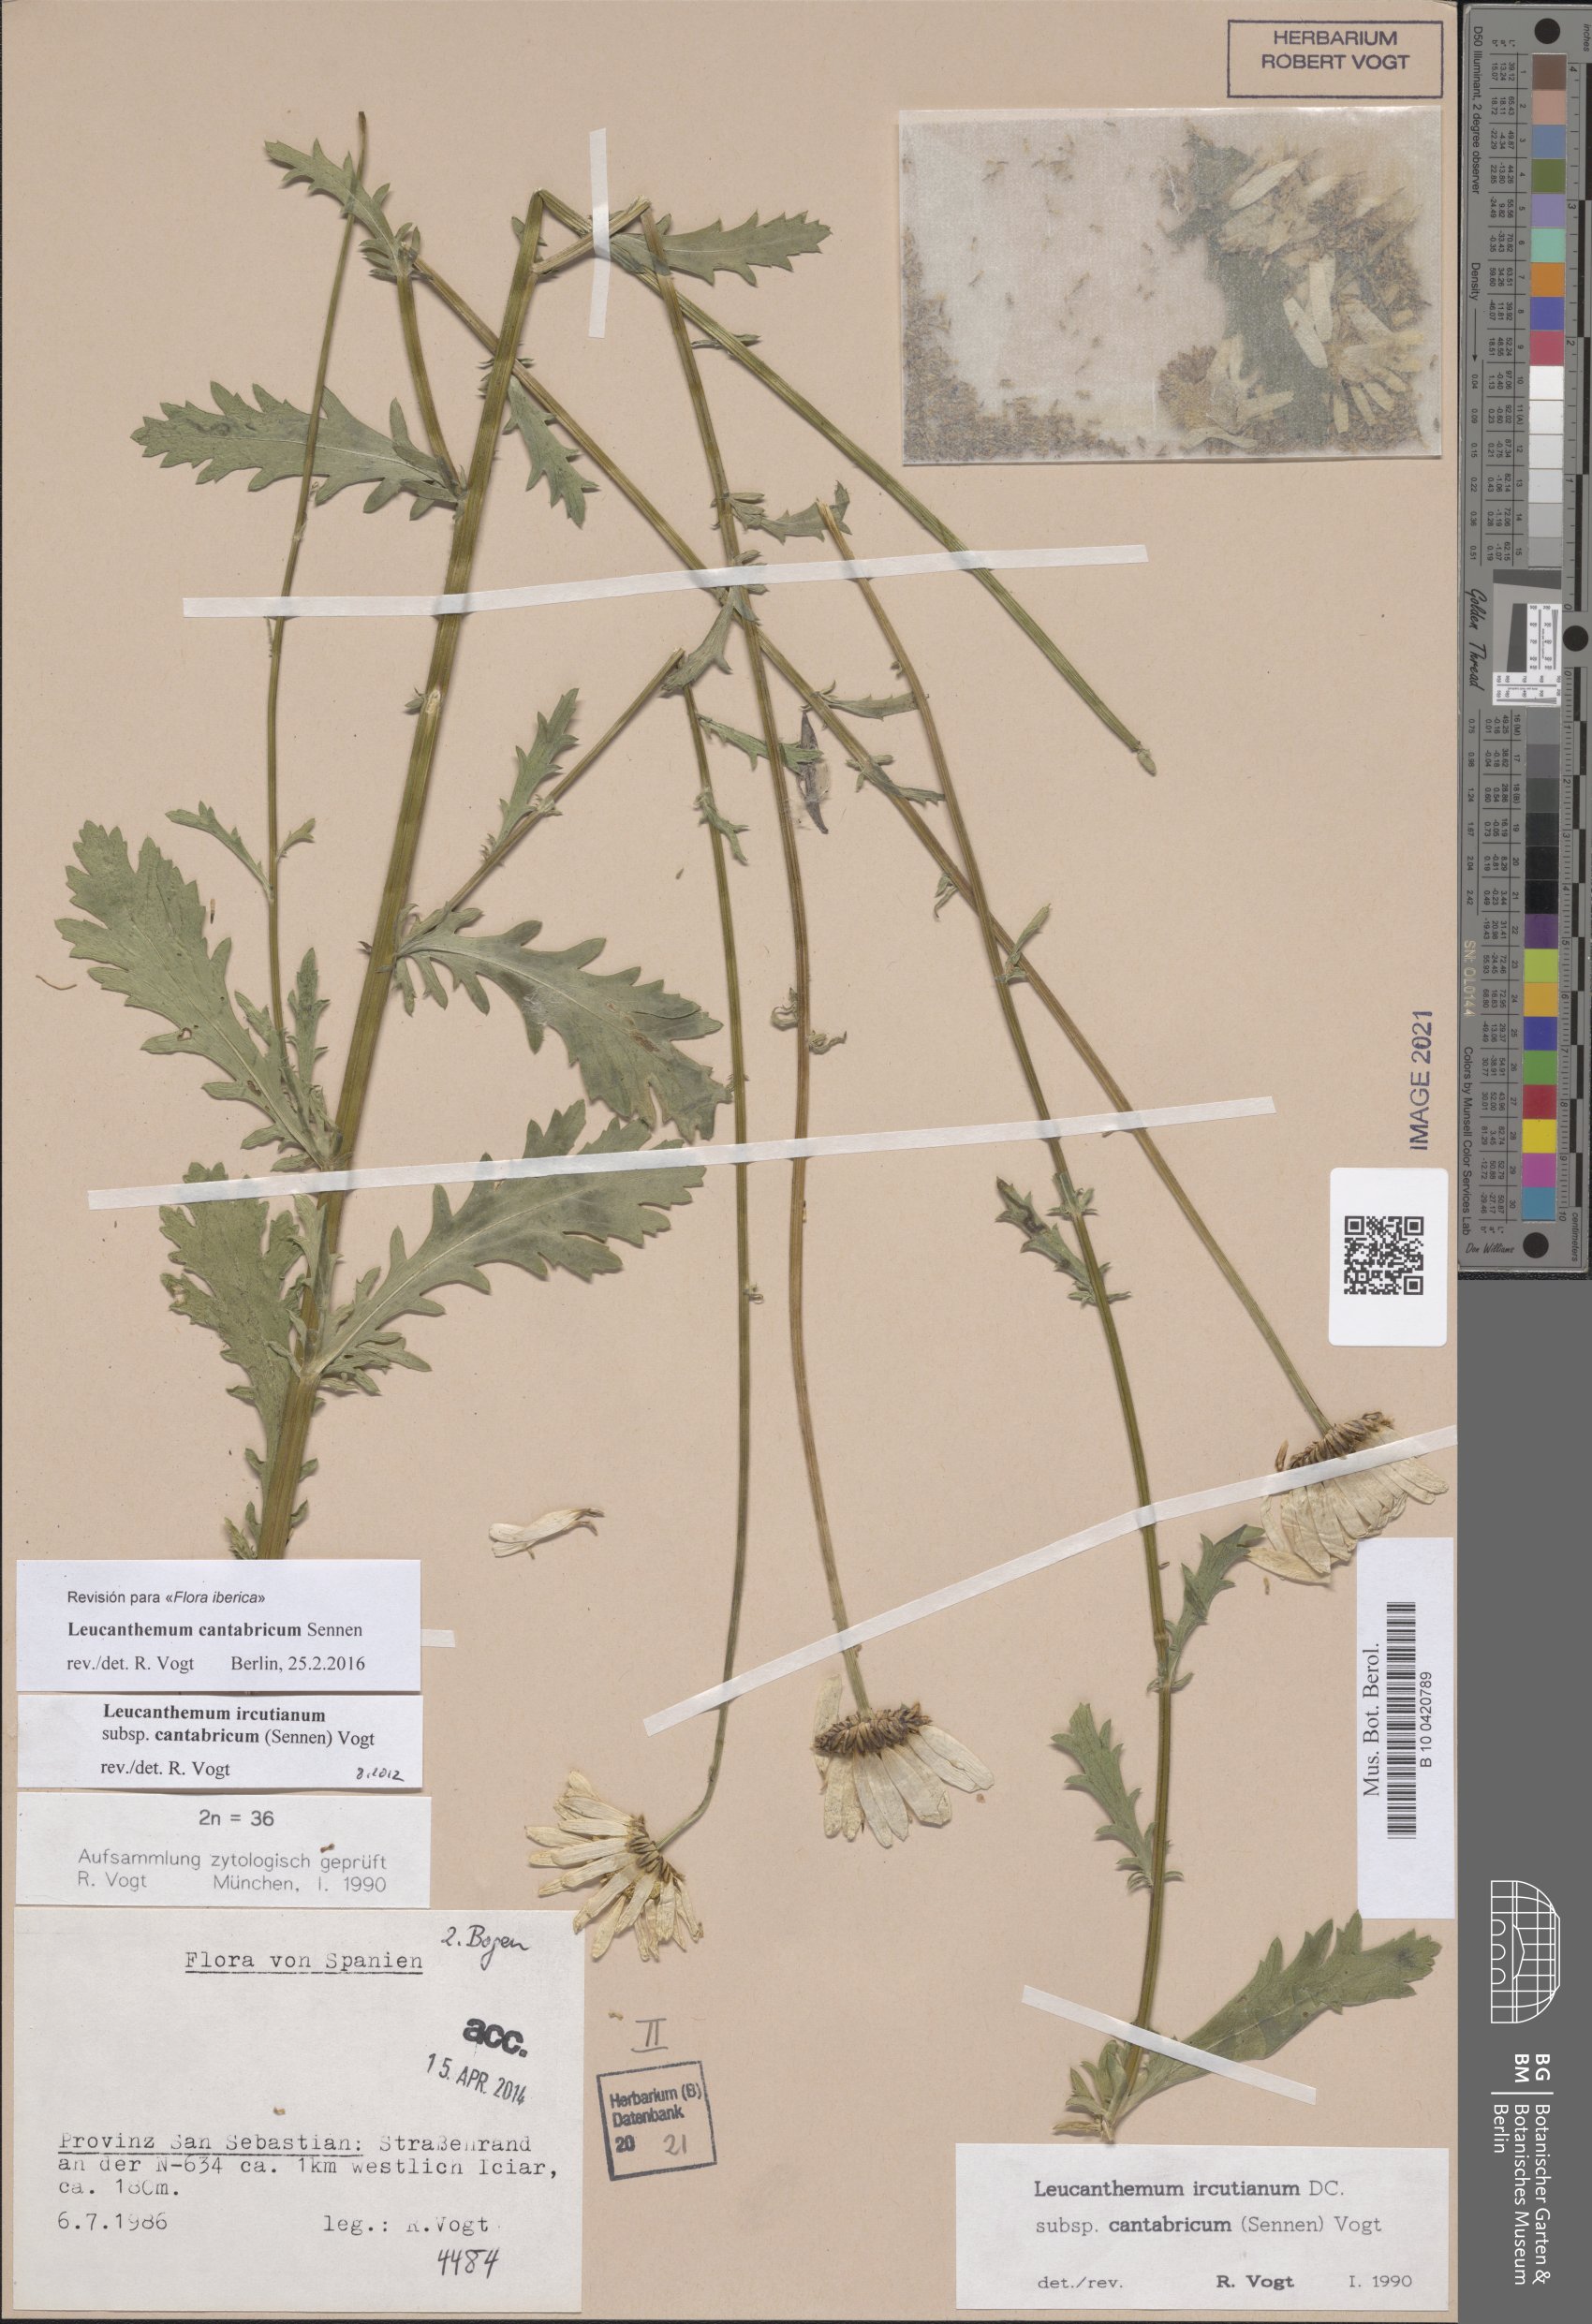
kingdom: Plantae
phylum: Tracheophyta
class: Magnoliopsida
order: Asterales
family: Asteraceae
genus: Leucanthemum
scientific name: Leucanthemum cantabricum
